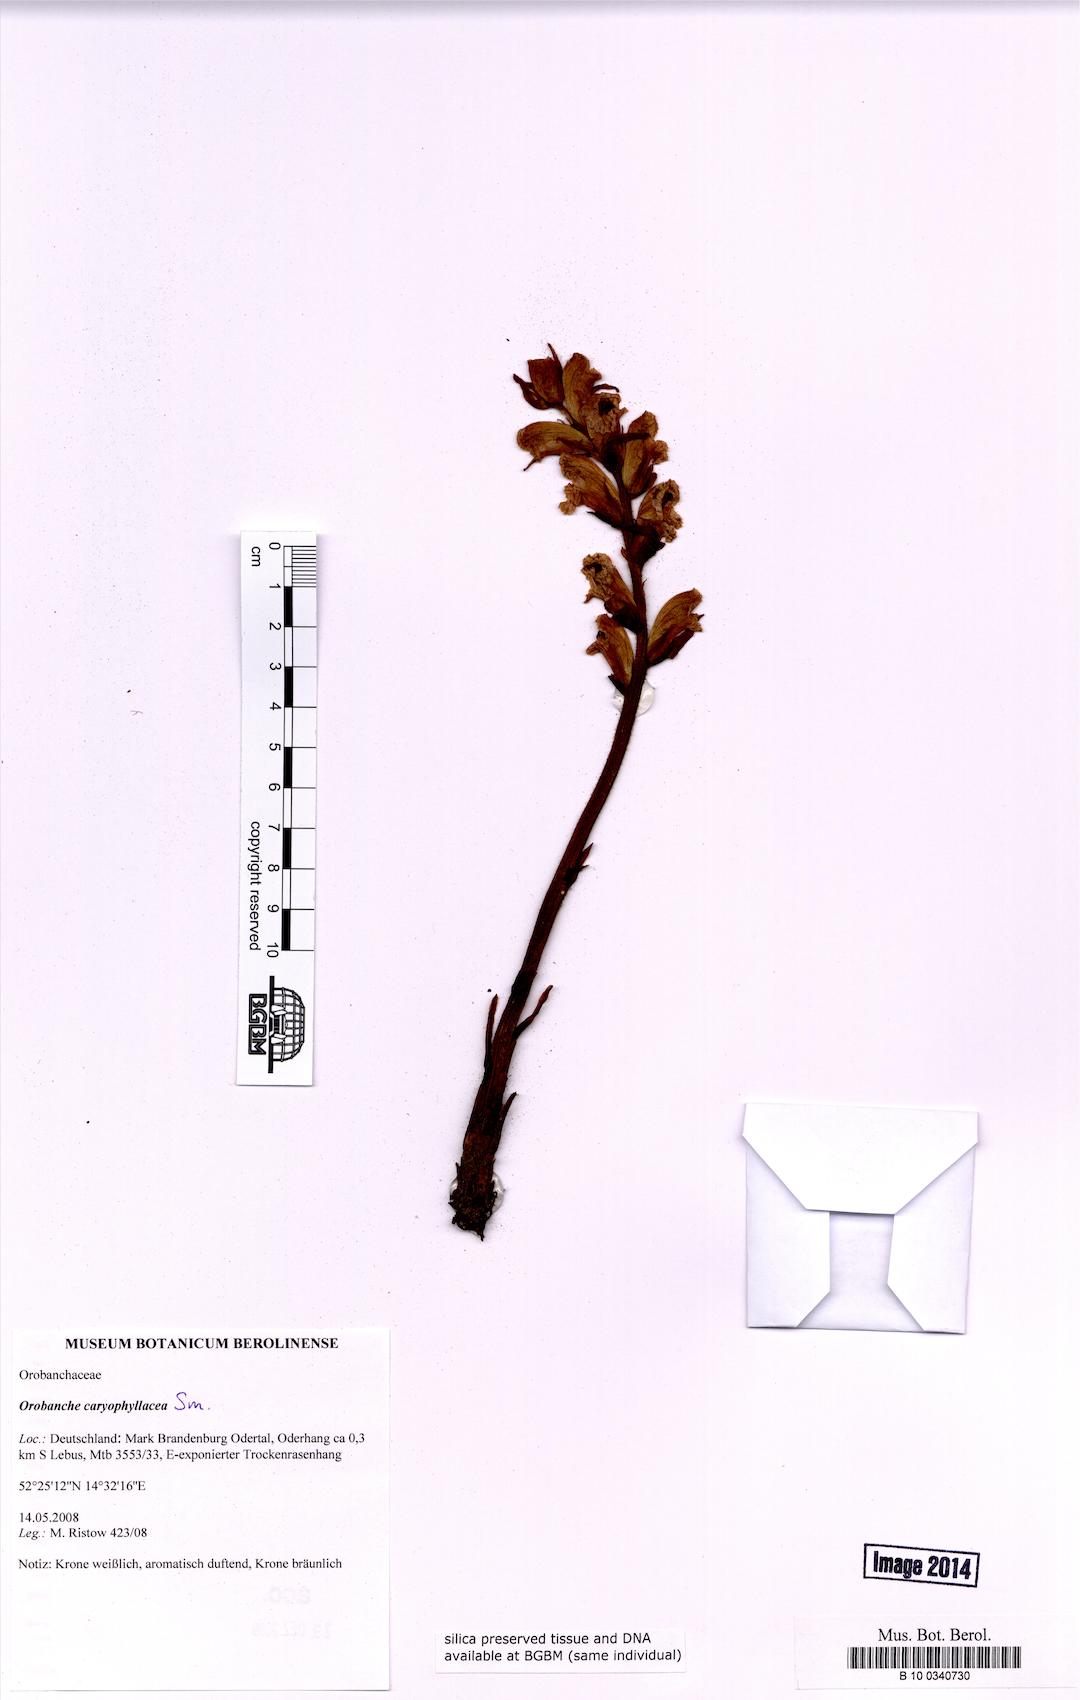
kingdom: Plantae
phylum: Tracheophyta
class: Magnoliopsida
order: Lamiales
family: Orobanchaceae
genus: Orobanche
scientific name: Orobanche caryophyllacea
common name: Bedstraw broomrape
